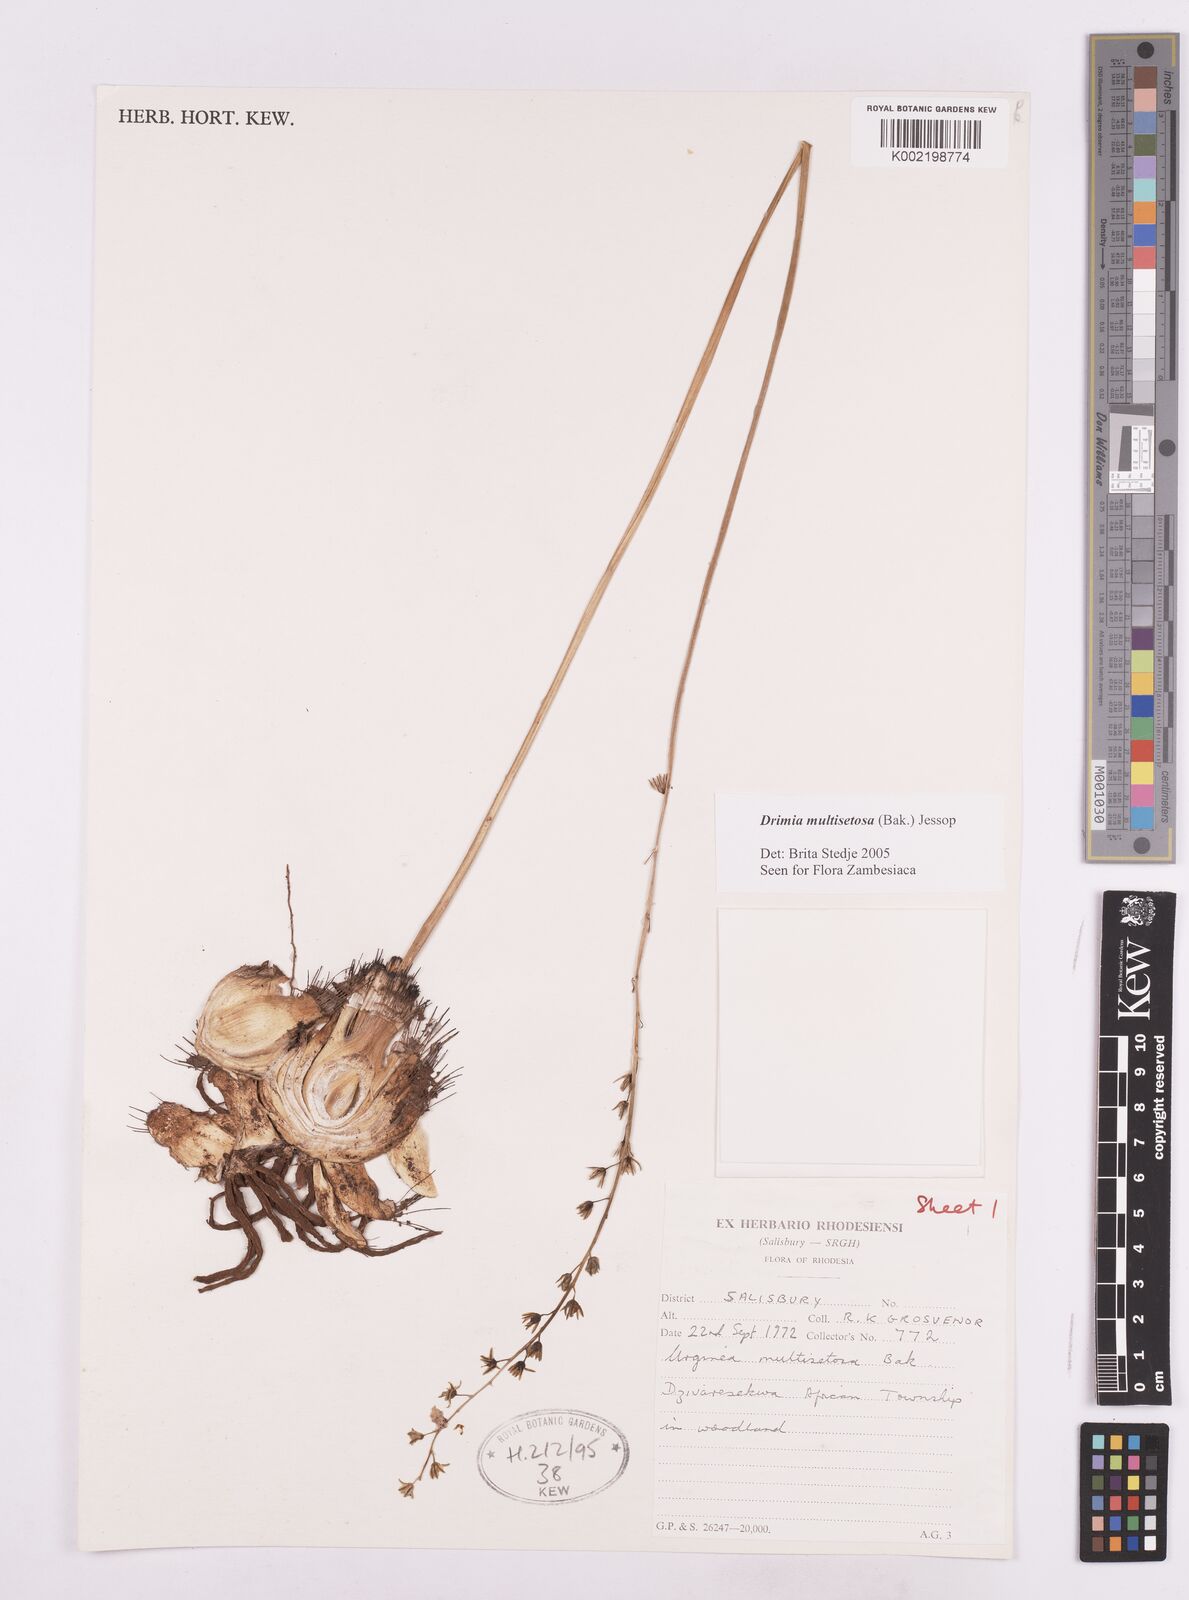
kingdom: Plantae
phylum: Tracheophyta
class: Liliopsida
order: Asparagales
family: Asparagaceae
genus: Drimia
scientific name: Drimia multisetosa
